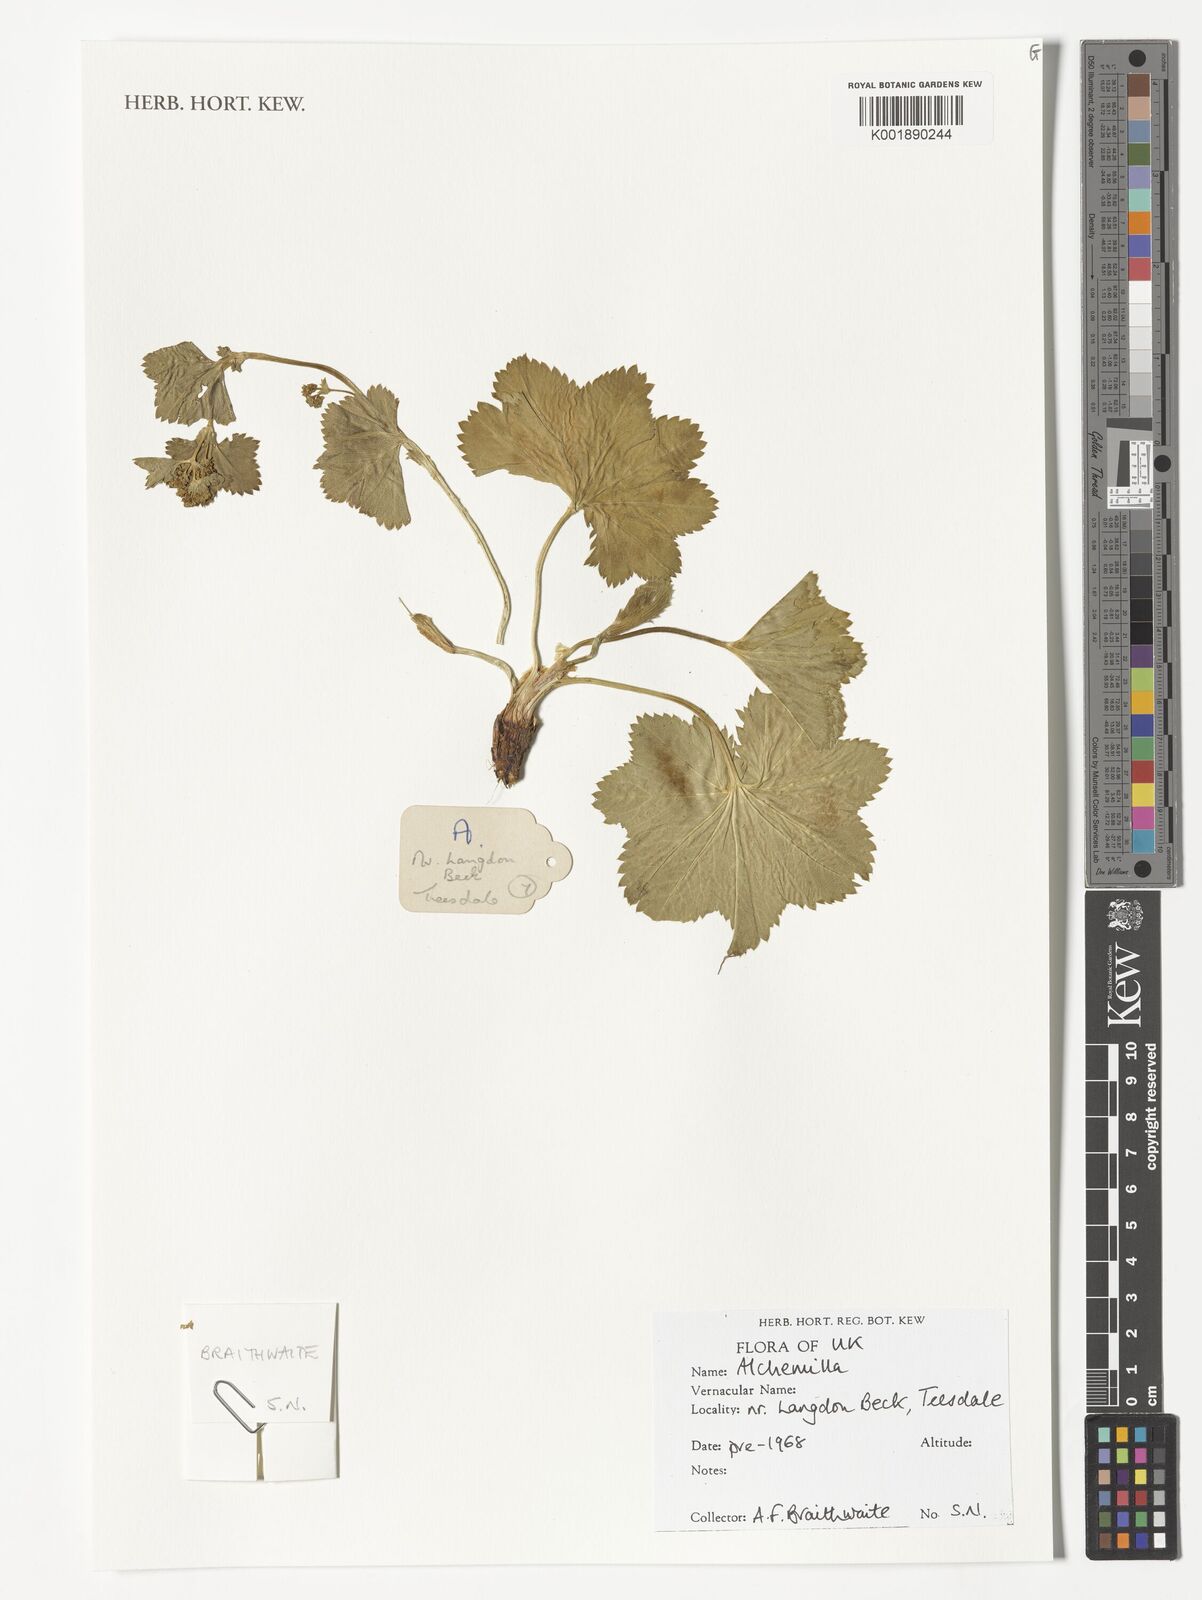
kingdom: Plantae
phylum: Tracheophyta
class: Magnoliopsida
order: Rosales
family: Rosaceae
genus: Alchemilla
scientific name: Alchemilla
